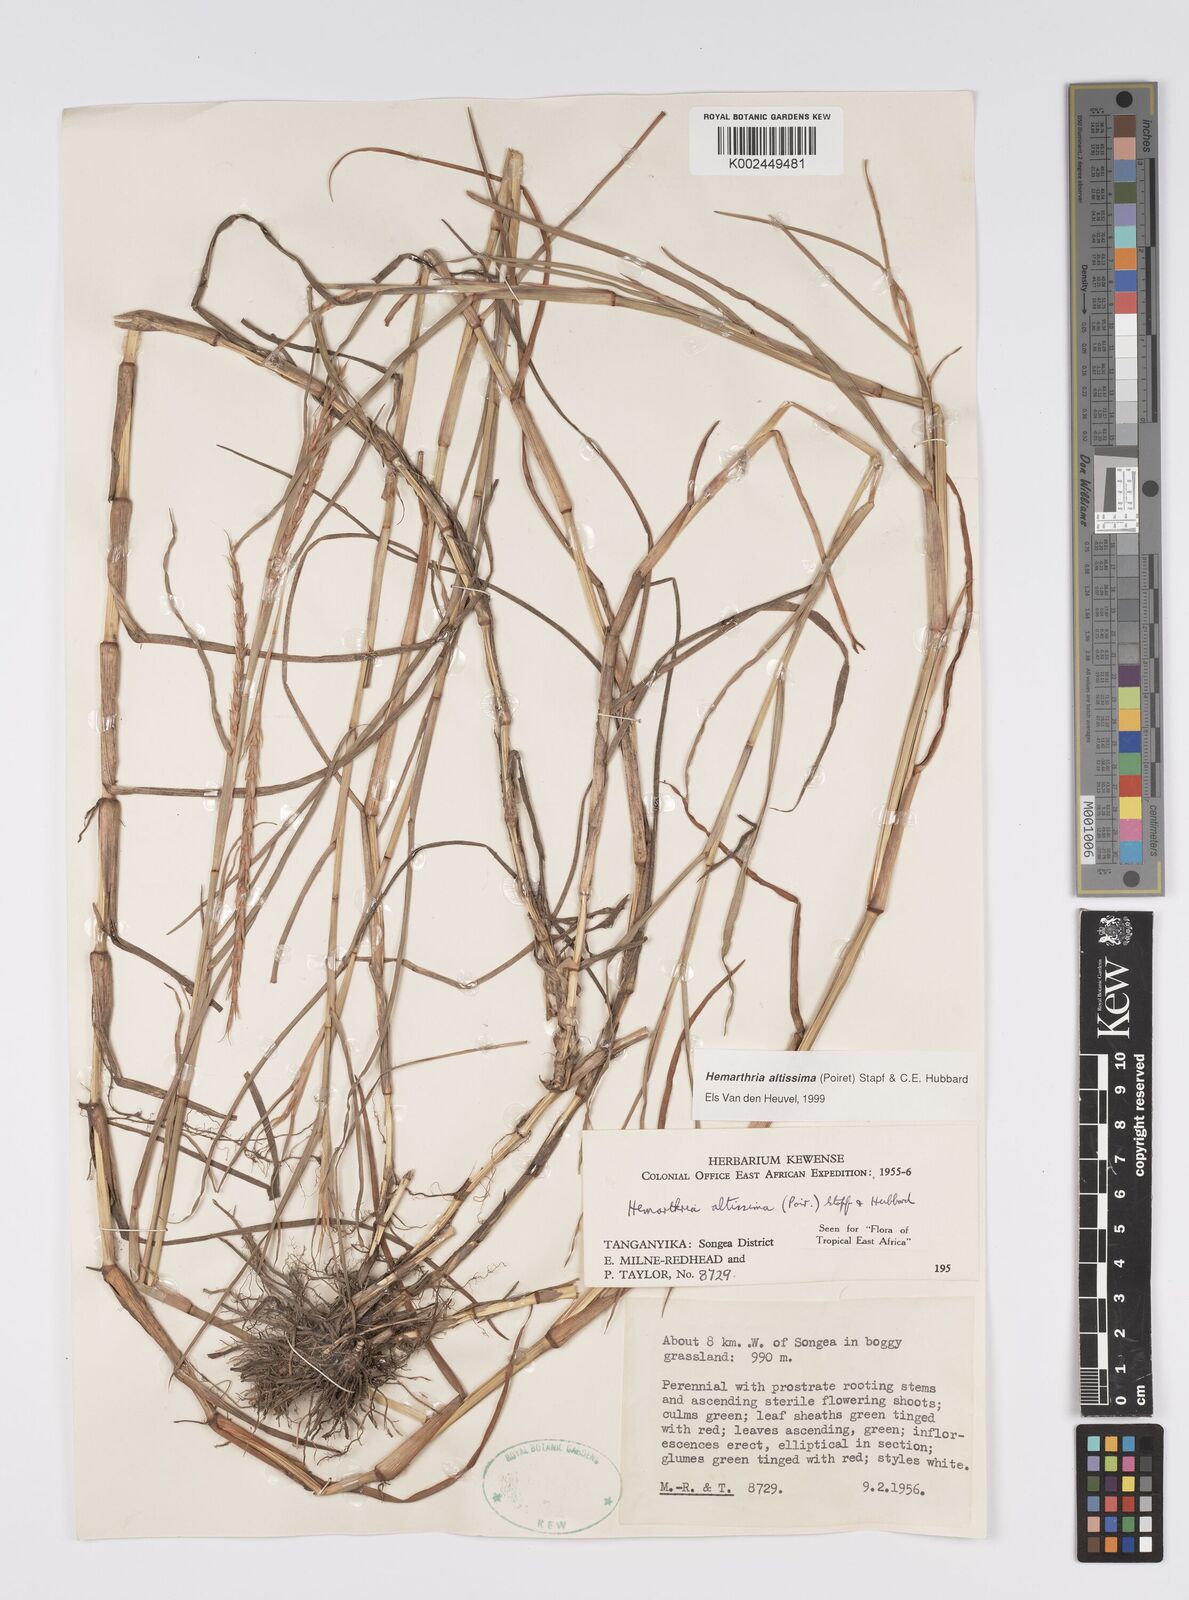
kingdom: Plantae
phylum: Tracheophyta
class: Liliopsida
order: Poales
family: Poaceae
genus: Hemarthria
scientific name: Hemarthria altissima
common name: African jointgrass
